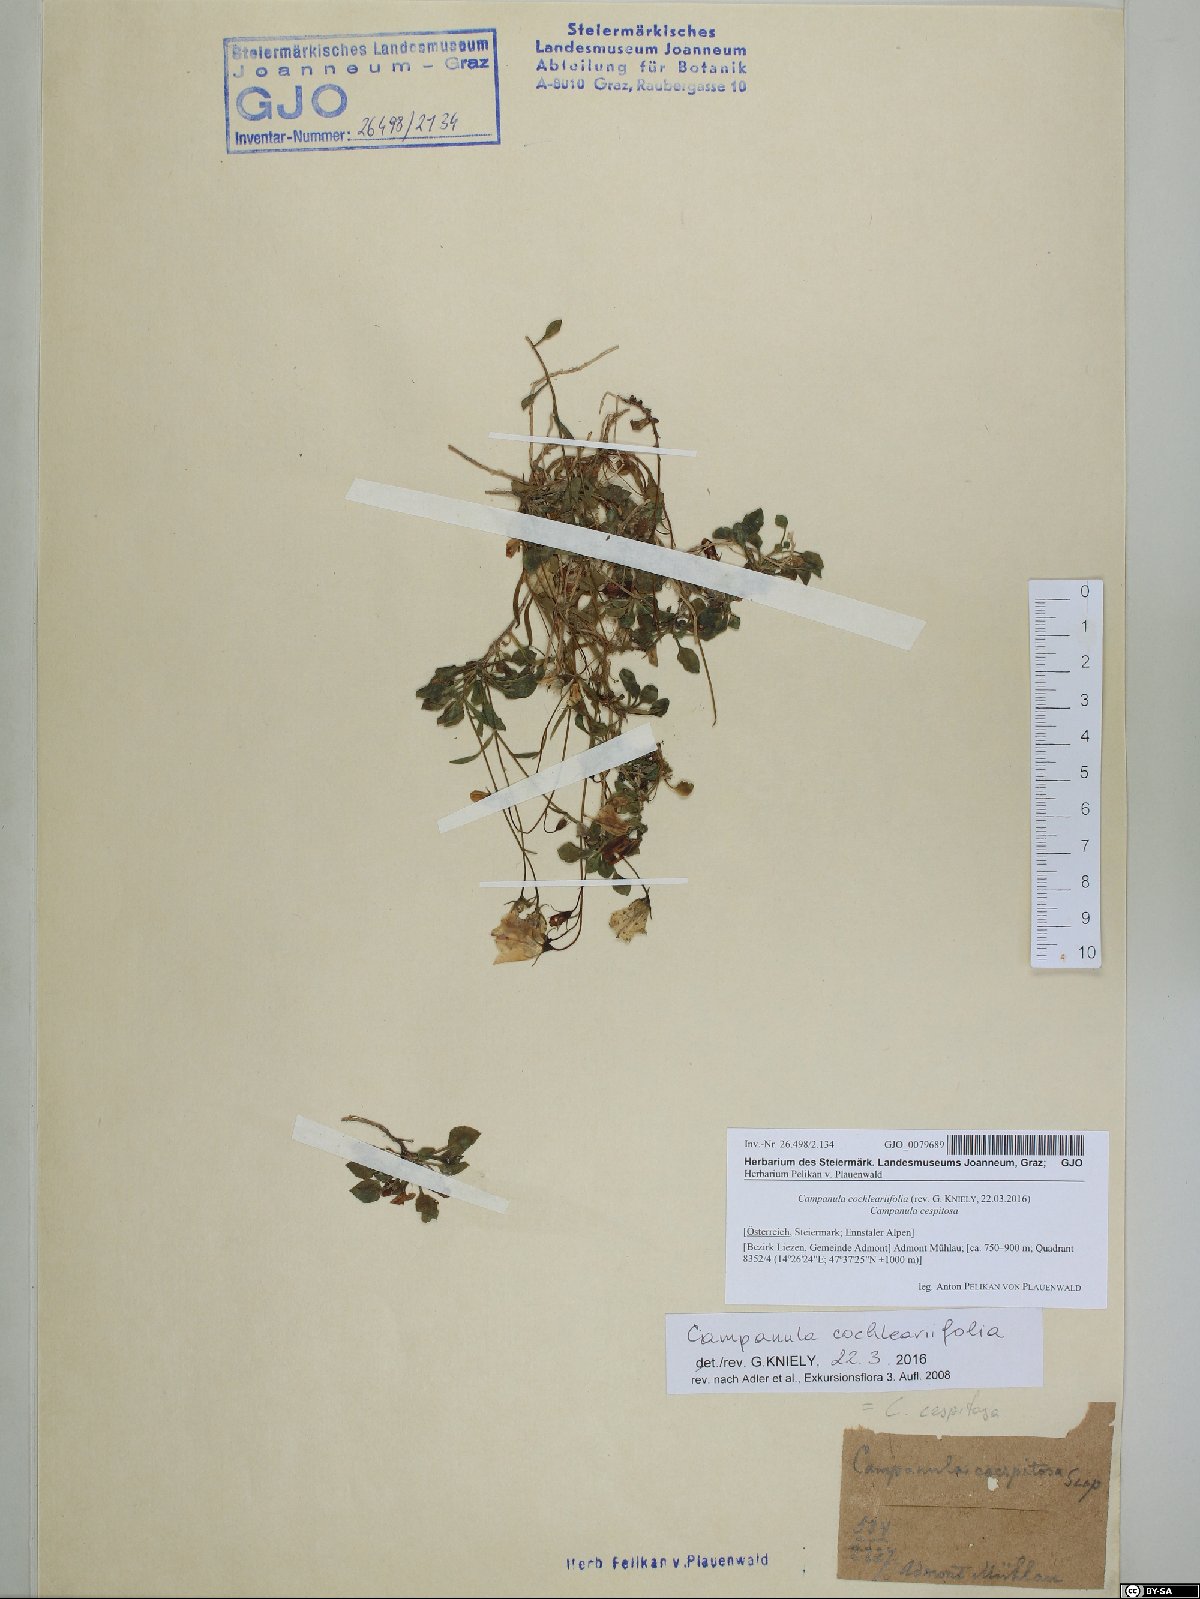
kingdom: Plantae
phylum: Tracheophyta
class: Magnoliopsida
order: Asterales
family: Campanulaceae
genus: Campanula
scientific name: Campanula cochleariifolia
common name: Fairies'-thimbles
